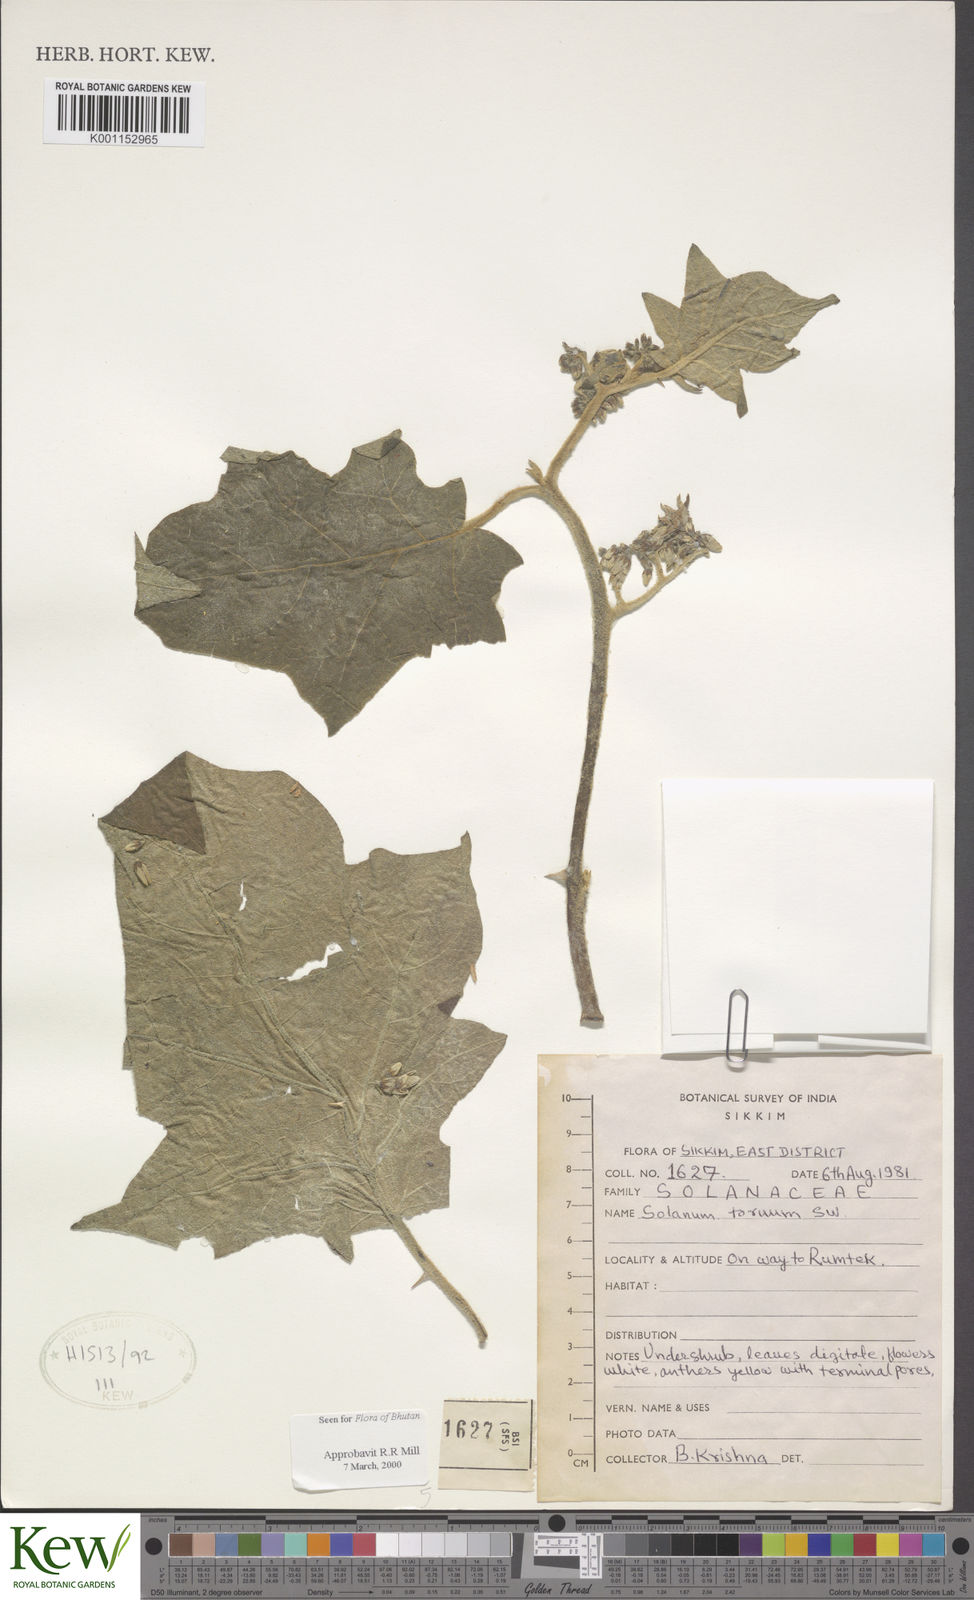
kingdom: Plantae
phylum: Tracheophyta
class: Magnoliopsida
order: Solanales
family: Solanaceae
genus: Solanum
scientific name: Solanum torvum
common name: Turkey berry
